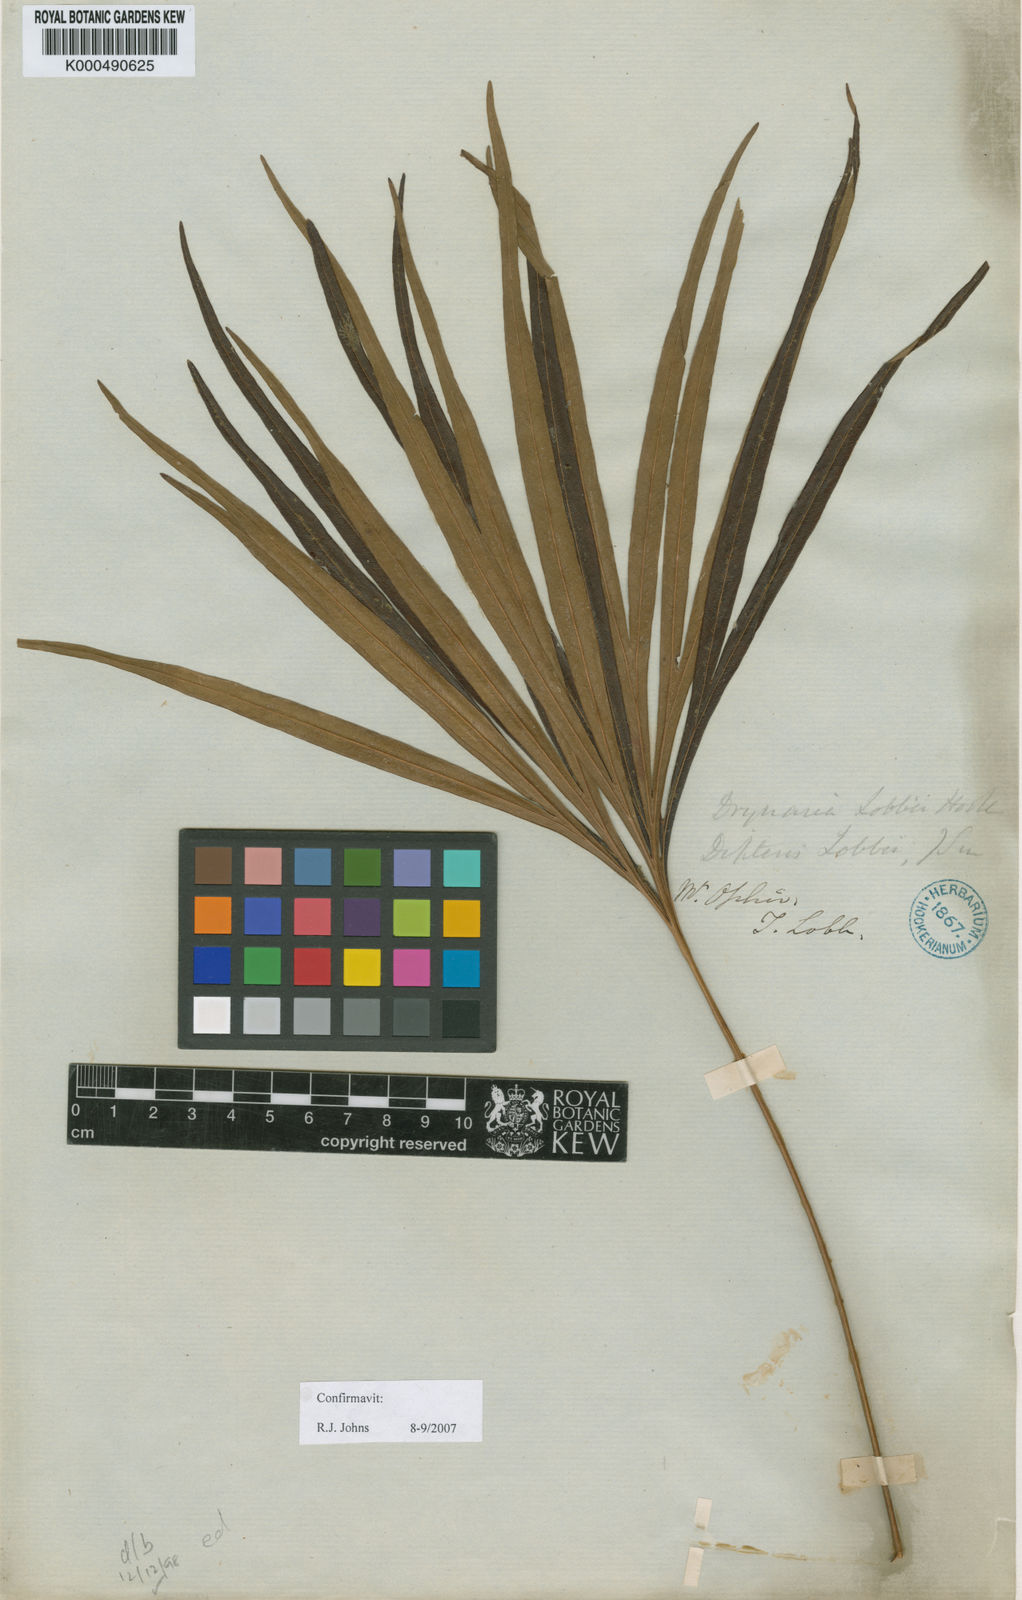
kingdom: Plantae
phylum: Tracheophyta
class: Polypodiopsida
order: Gleicheniales
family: Dipteridaceae
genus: Dipteris
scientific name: Dipteris lobbiana
